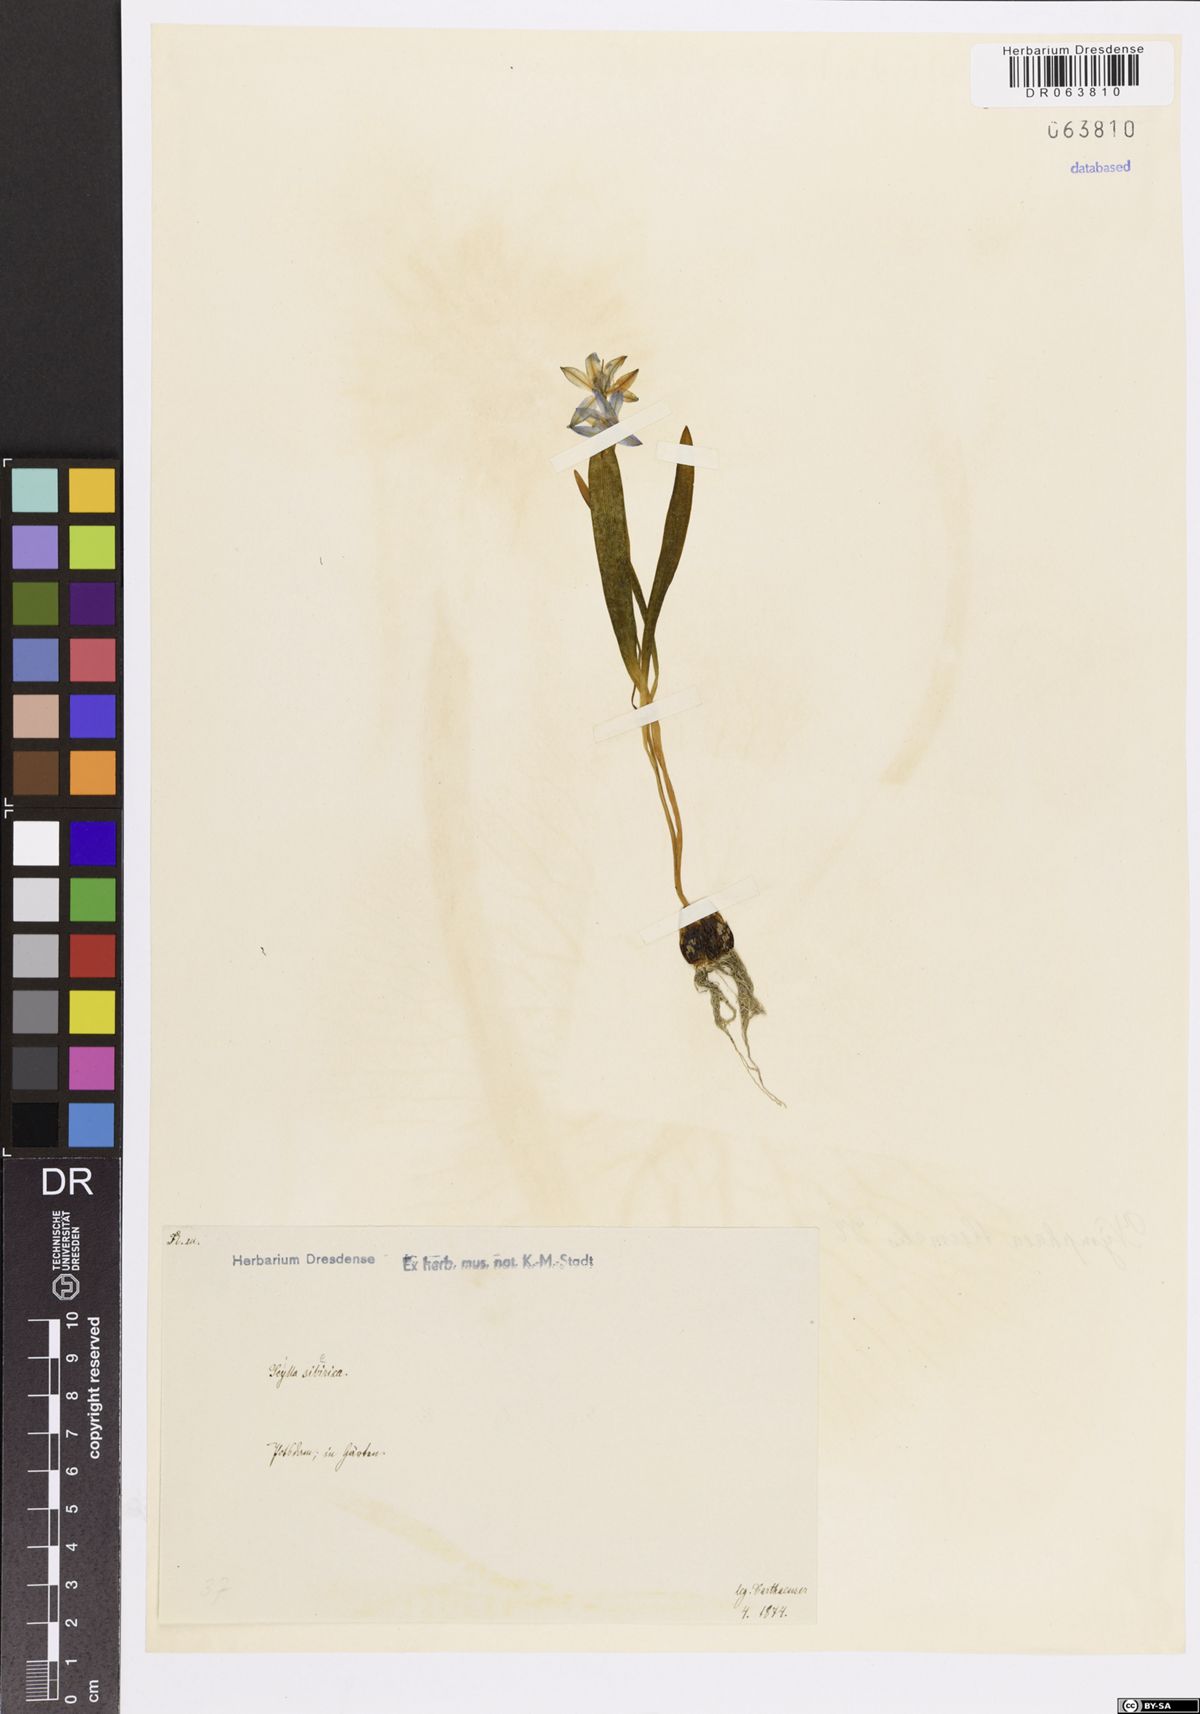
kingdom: Plantae
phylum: Tracheophyta
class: Liliopsida
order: Asparagales
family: Asparagaceae
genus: Scilla
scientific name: Scilla siberica
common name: Siberian squill
